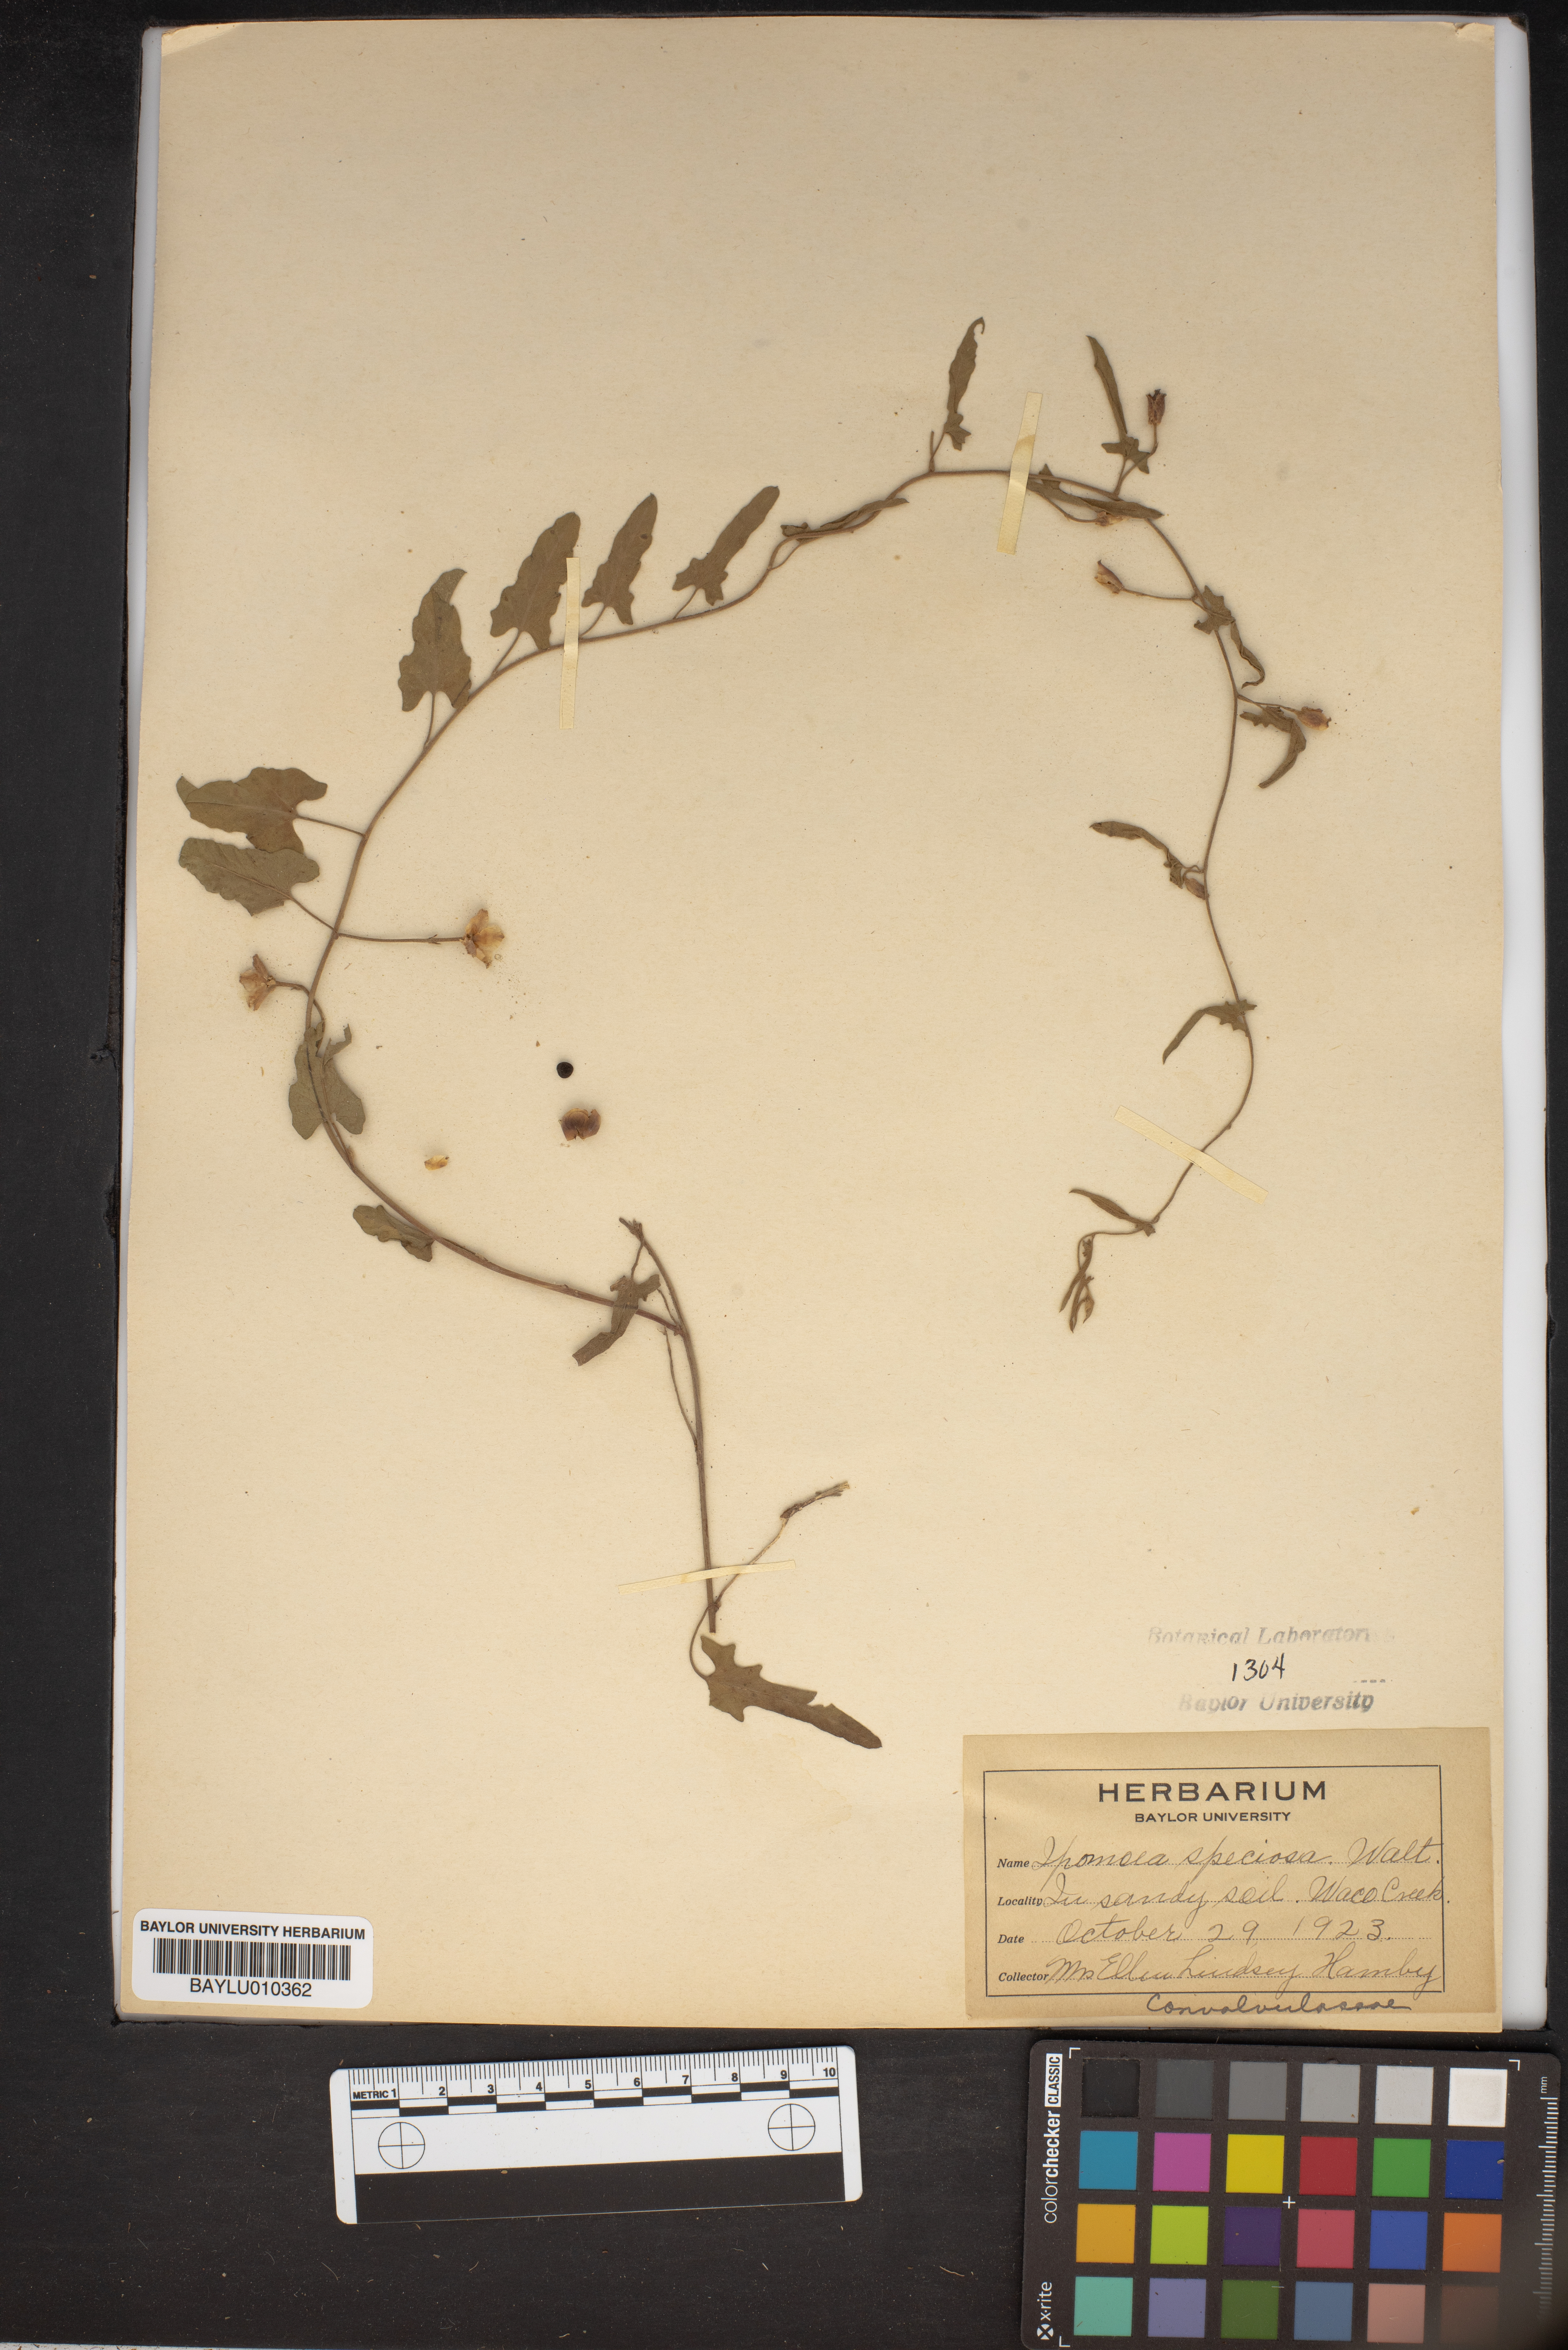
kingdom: Plantae
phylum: Tracheophyta
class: Magnoliopsida
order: Solanales
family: Convolvulaceae
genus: Ipomoea
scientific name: Ipomoea nil
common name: Japanese morning-glory
